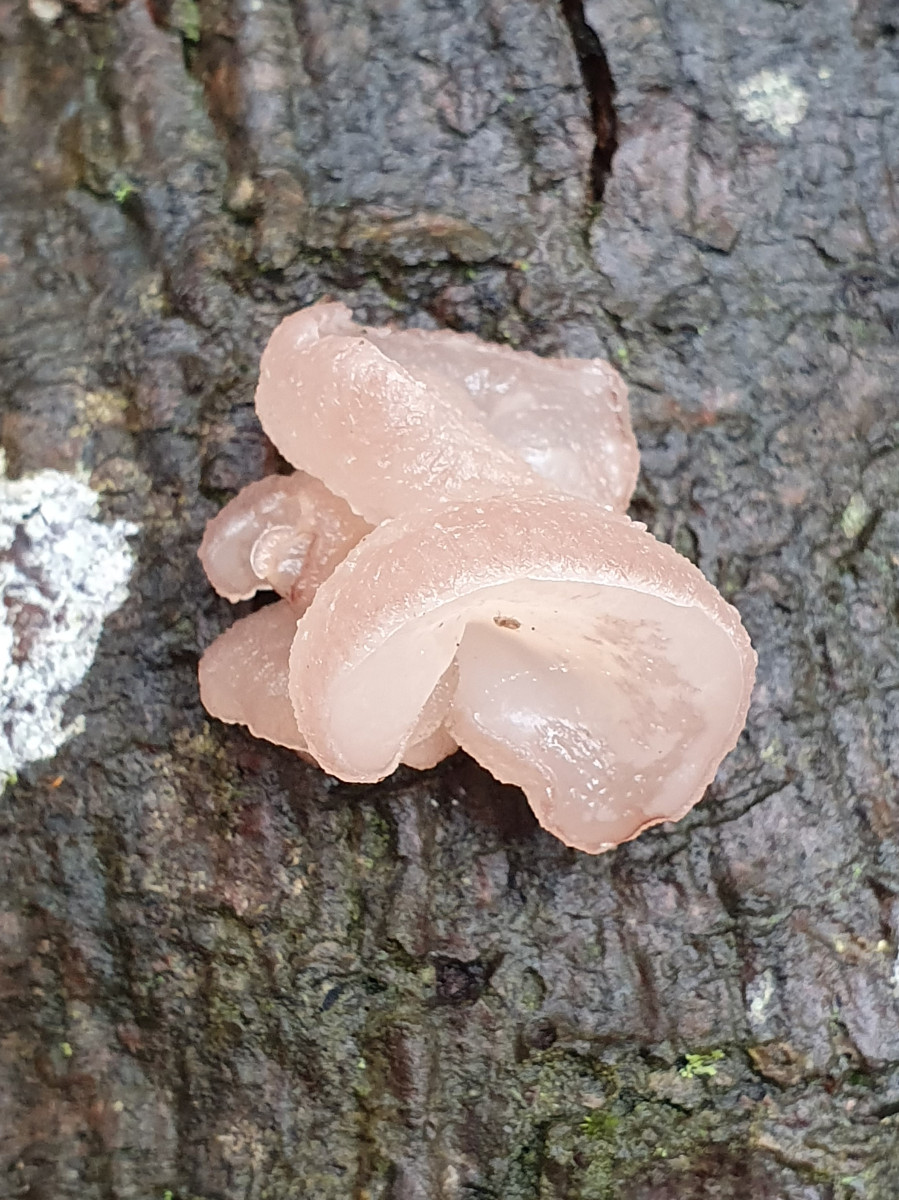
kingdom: Fungi
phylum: Ascomycota
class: Leotiomycetes
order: Helotiales
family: Gelatinodiscaceae
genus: Neobulgaria
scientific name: Neobulgaria pura
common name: bleg bævreskive
